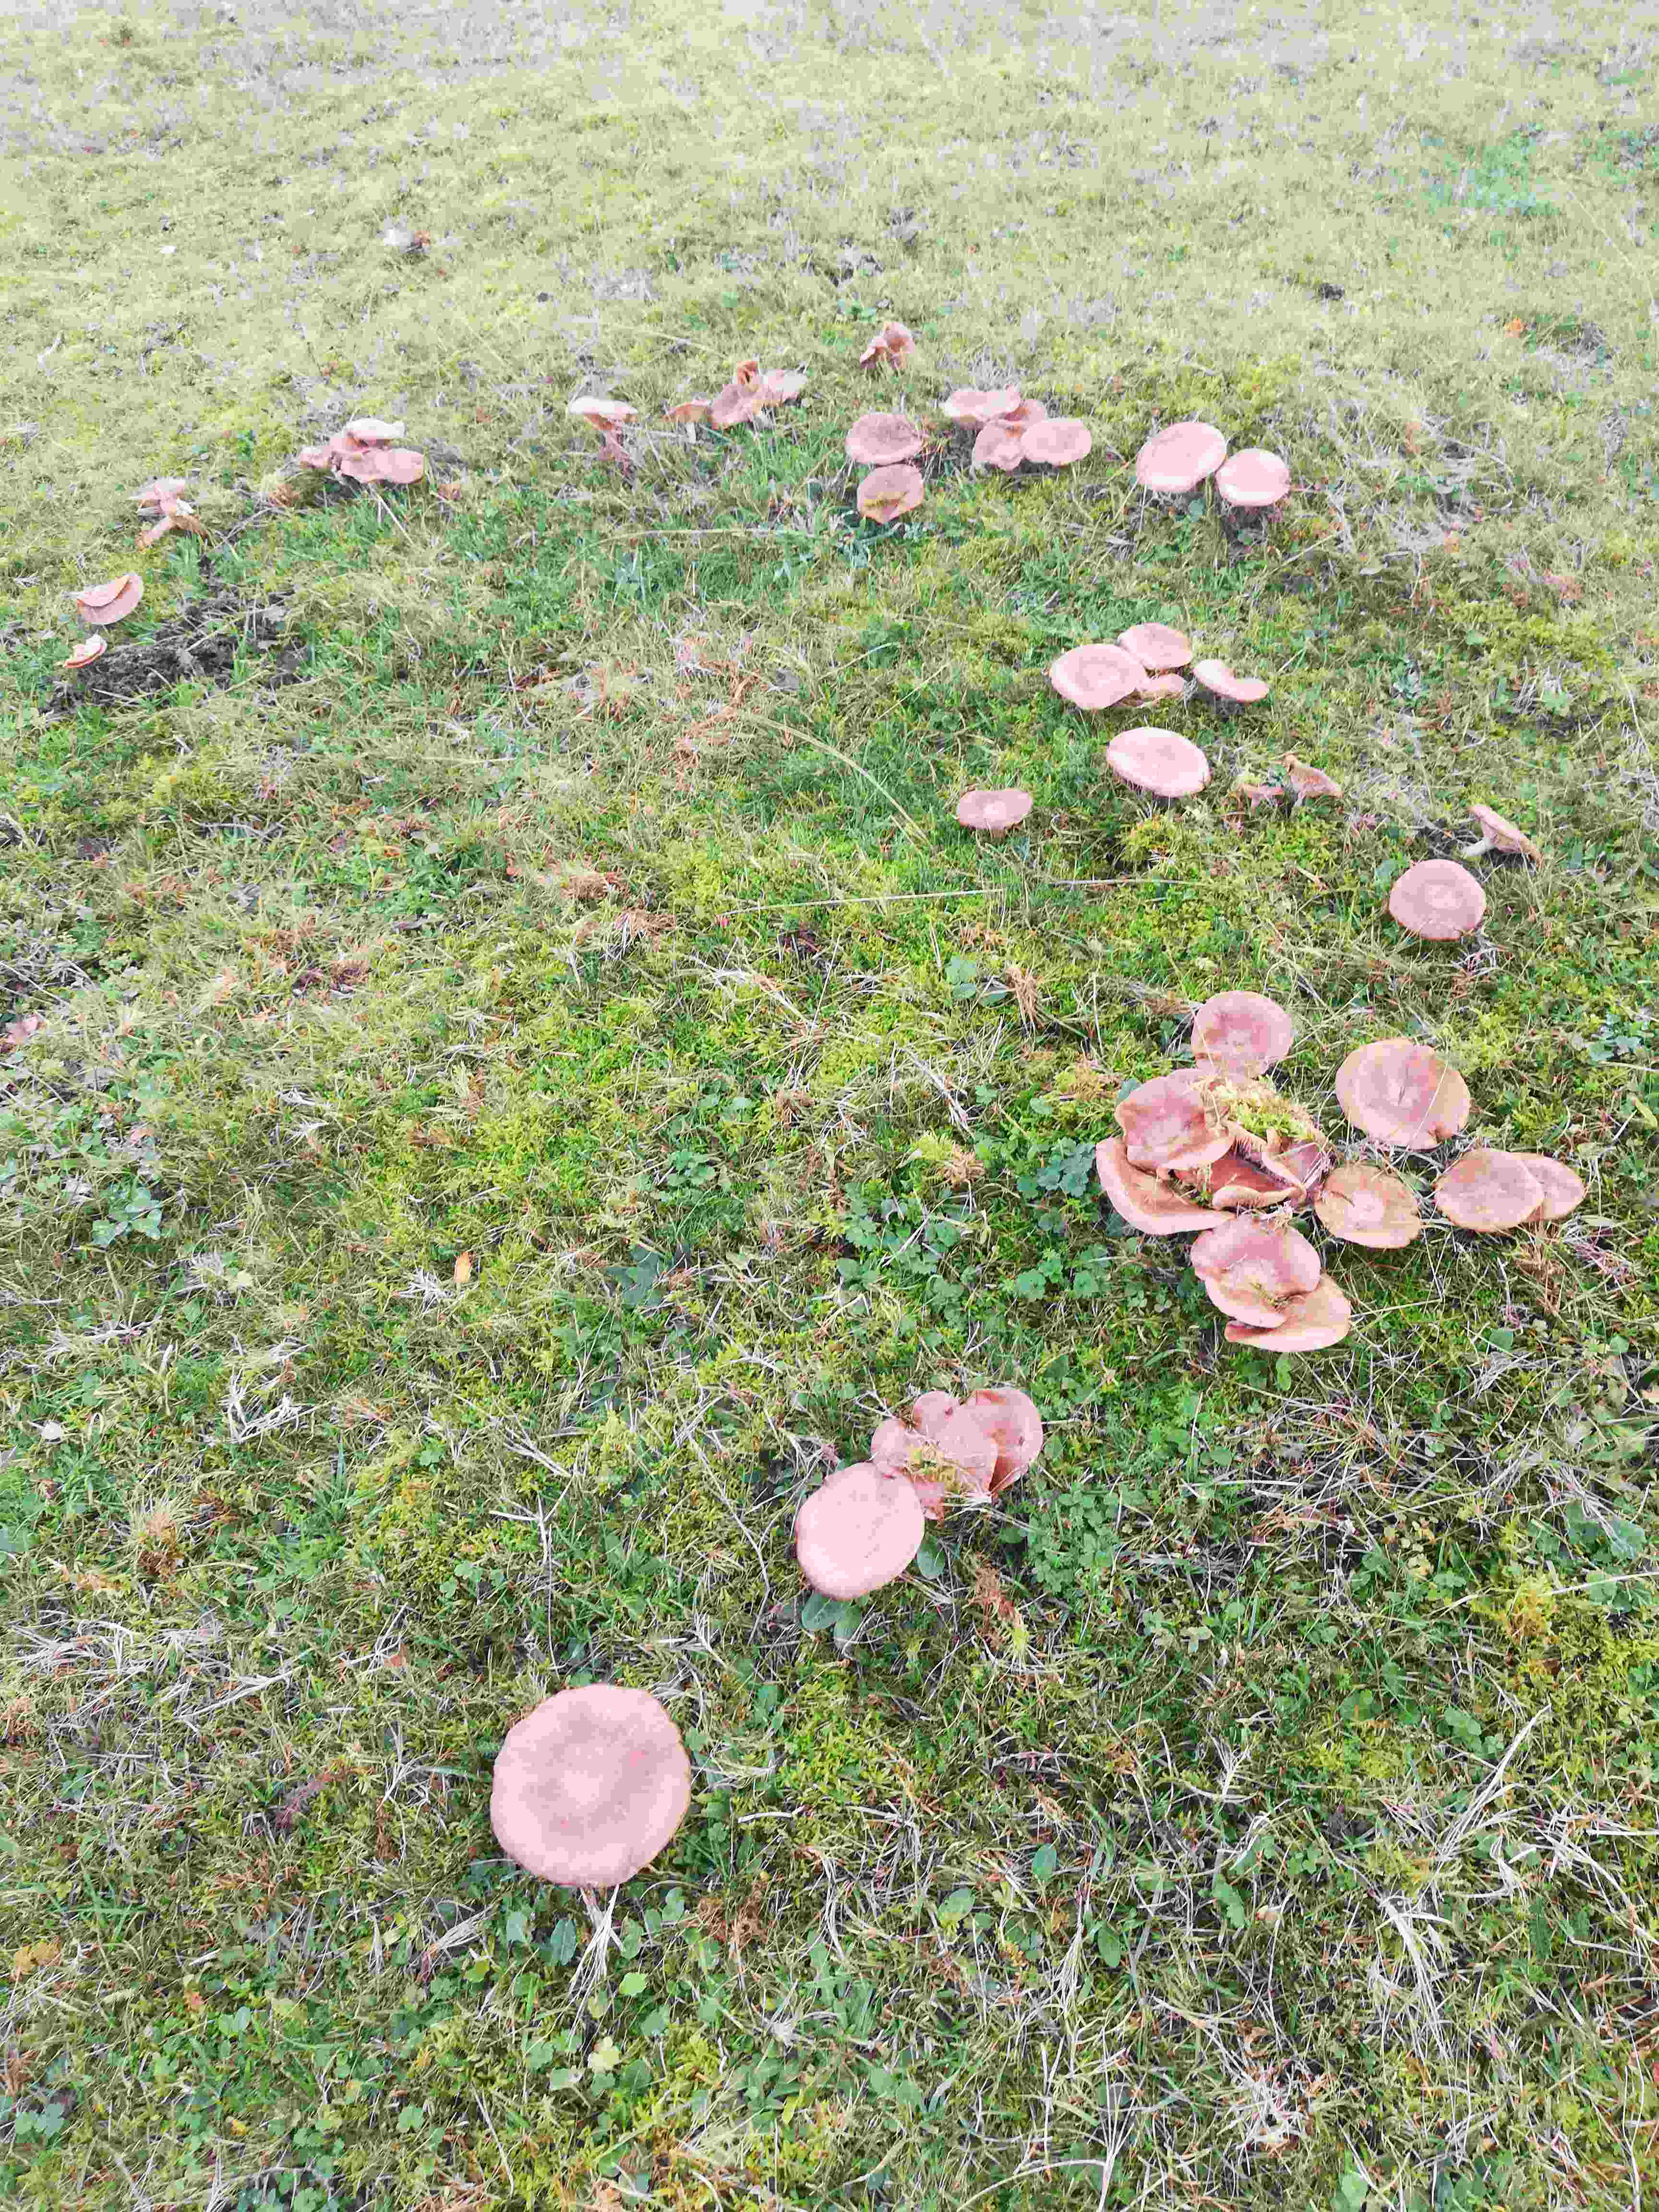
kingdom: Fungi
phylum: Basidiomycota
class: Agaricomycetes
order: Agaricales
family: Tricholomataceae
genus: Lepista
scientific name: Lepista nuda
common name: violet hekseringshat
